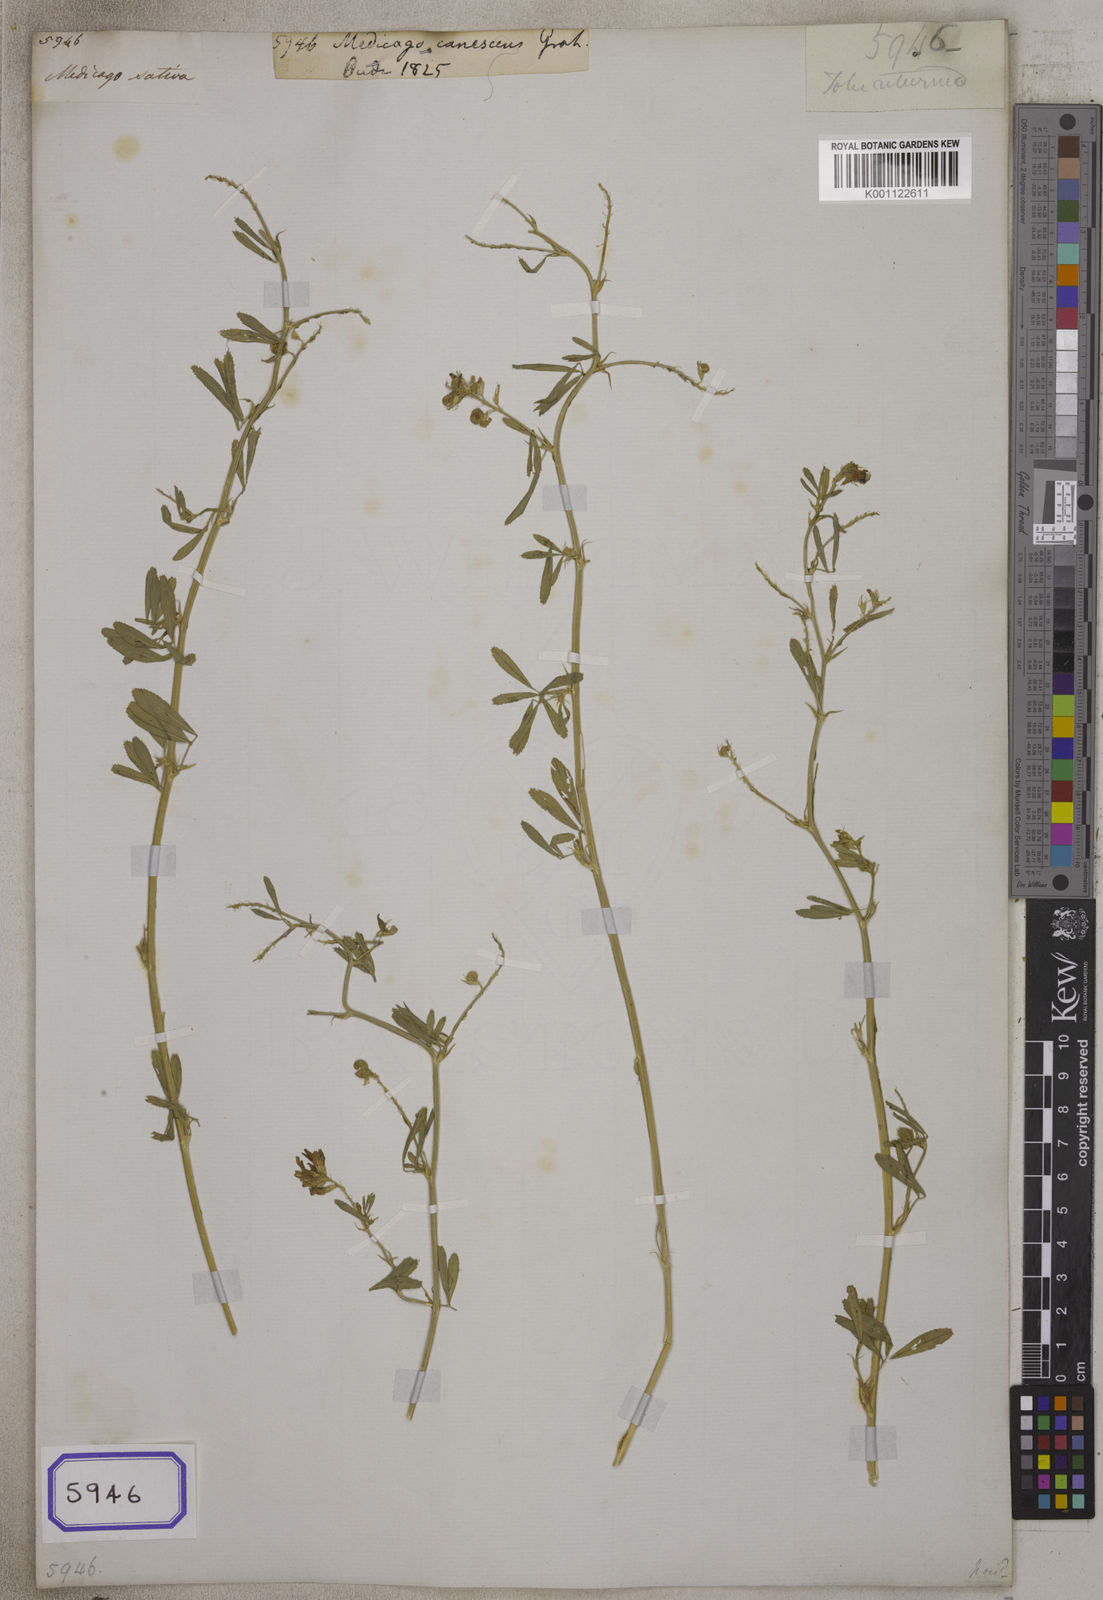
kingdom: Plantae
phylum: Tracheophyta
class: Magnoliopsida
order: Fabales
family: Fabaceae
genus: Medicago
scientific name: Medicago polymorpha
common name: Burclover
